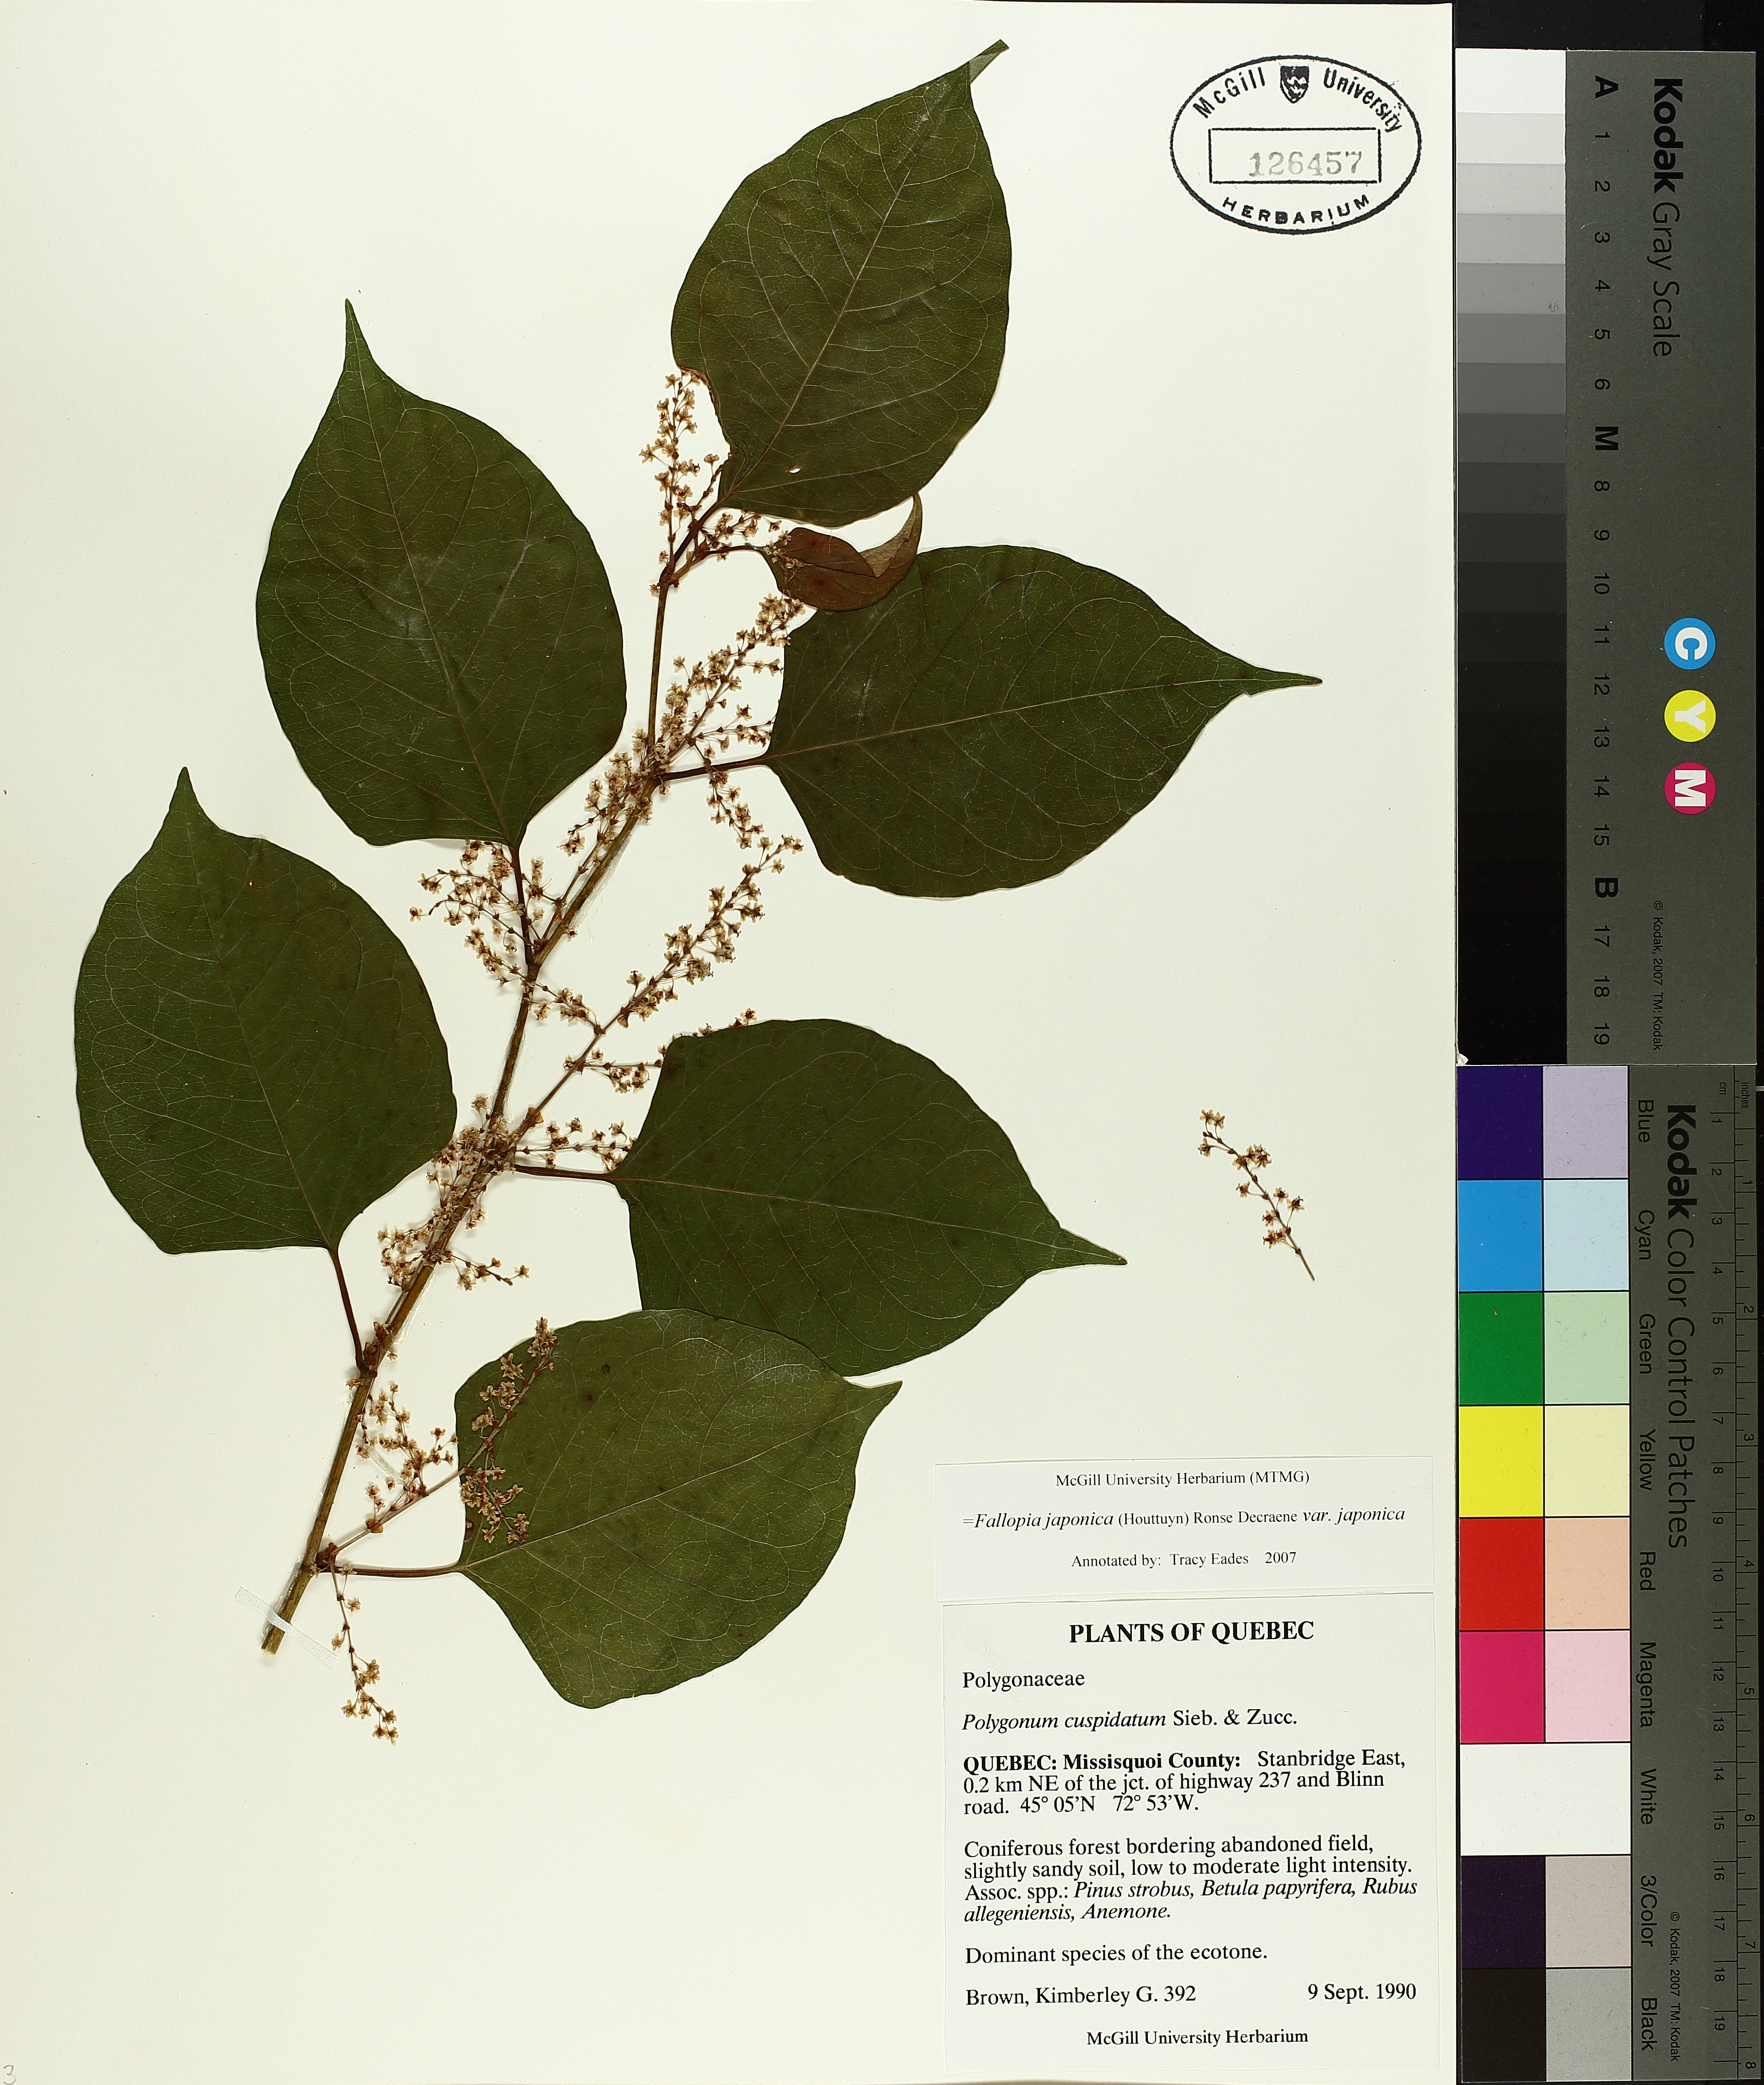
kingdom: Plantae
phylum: Tracheophyta
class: Magnoliopsida
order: Caryophyllales
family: Polygonaceae
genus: Reynoutria
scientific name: Reynoutria japonica
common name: Japanese knotweed
